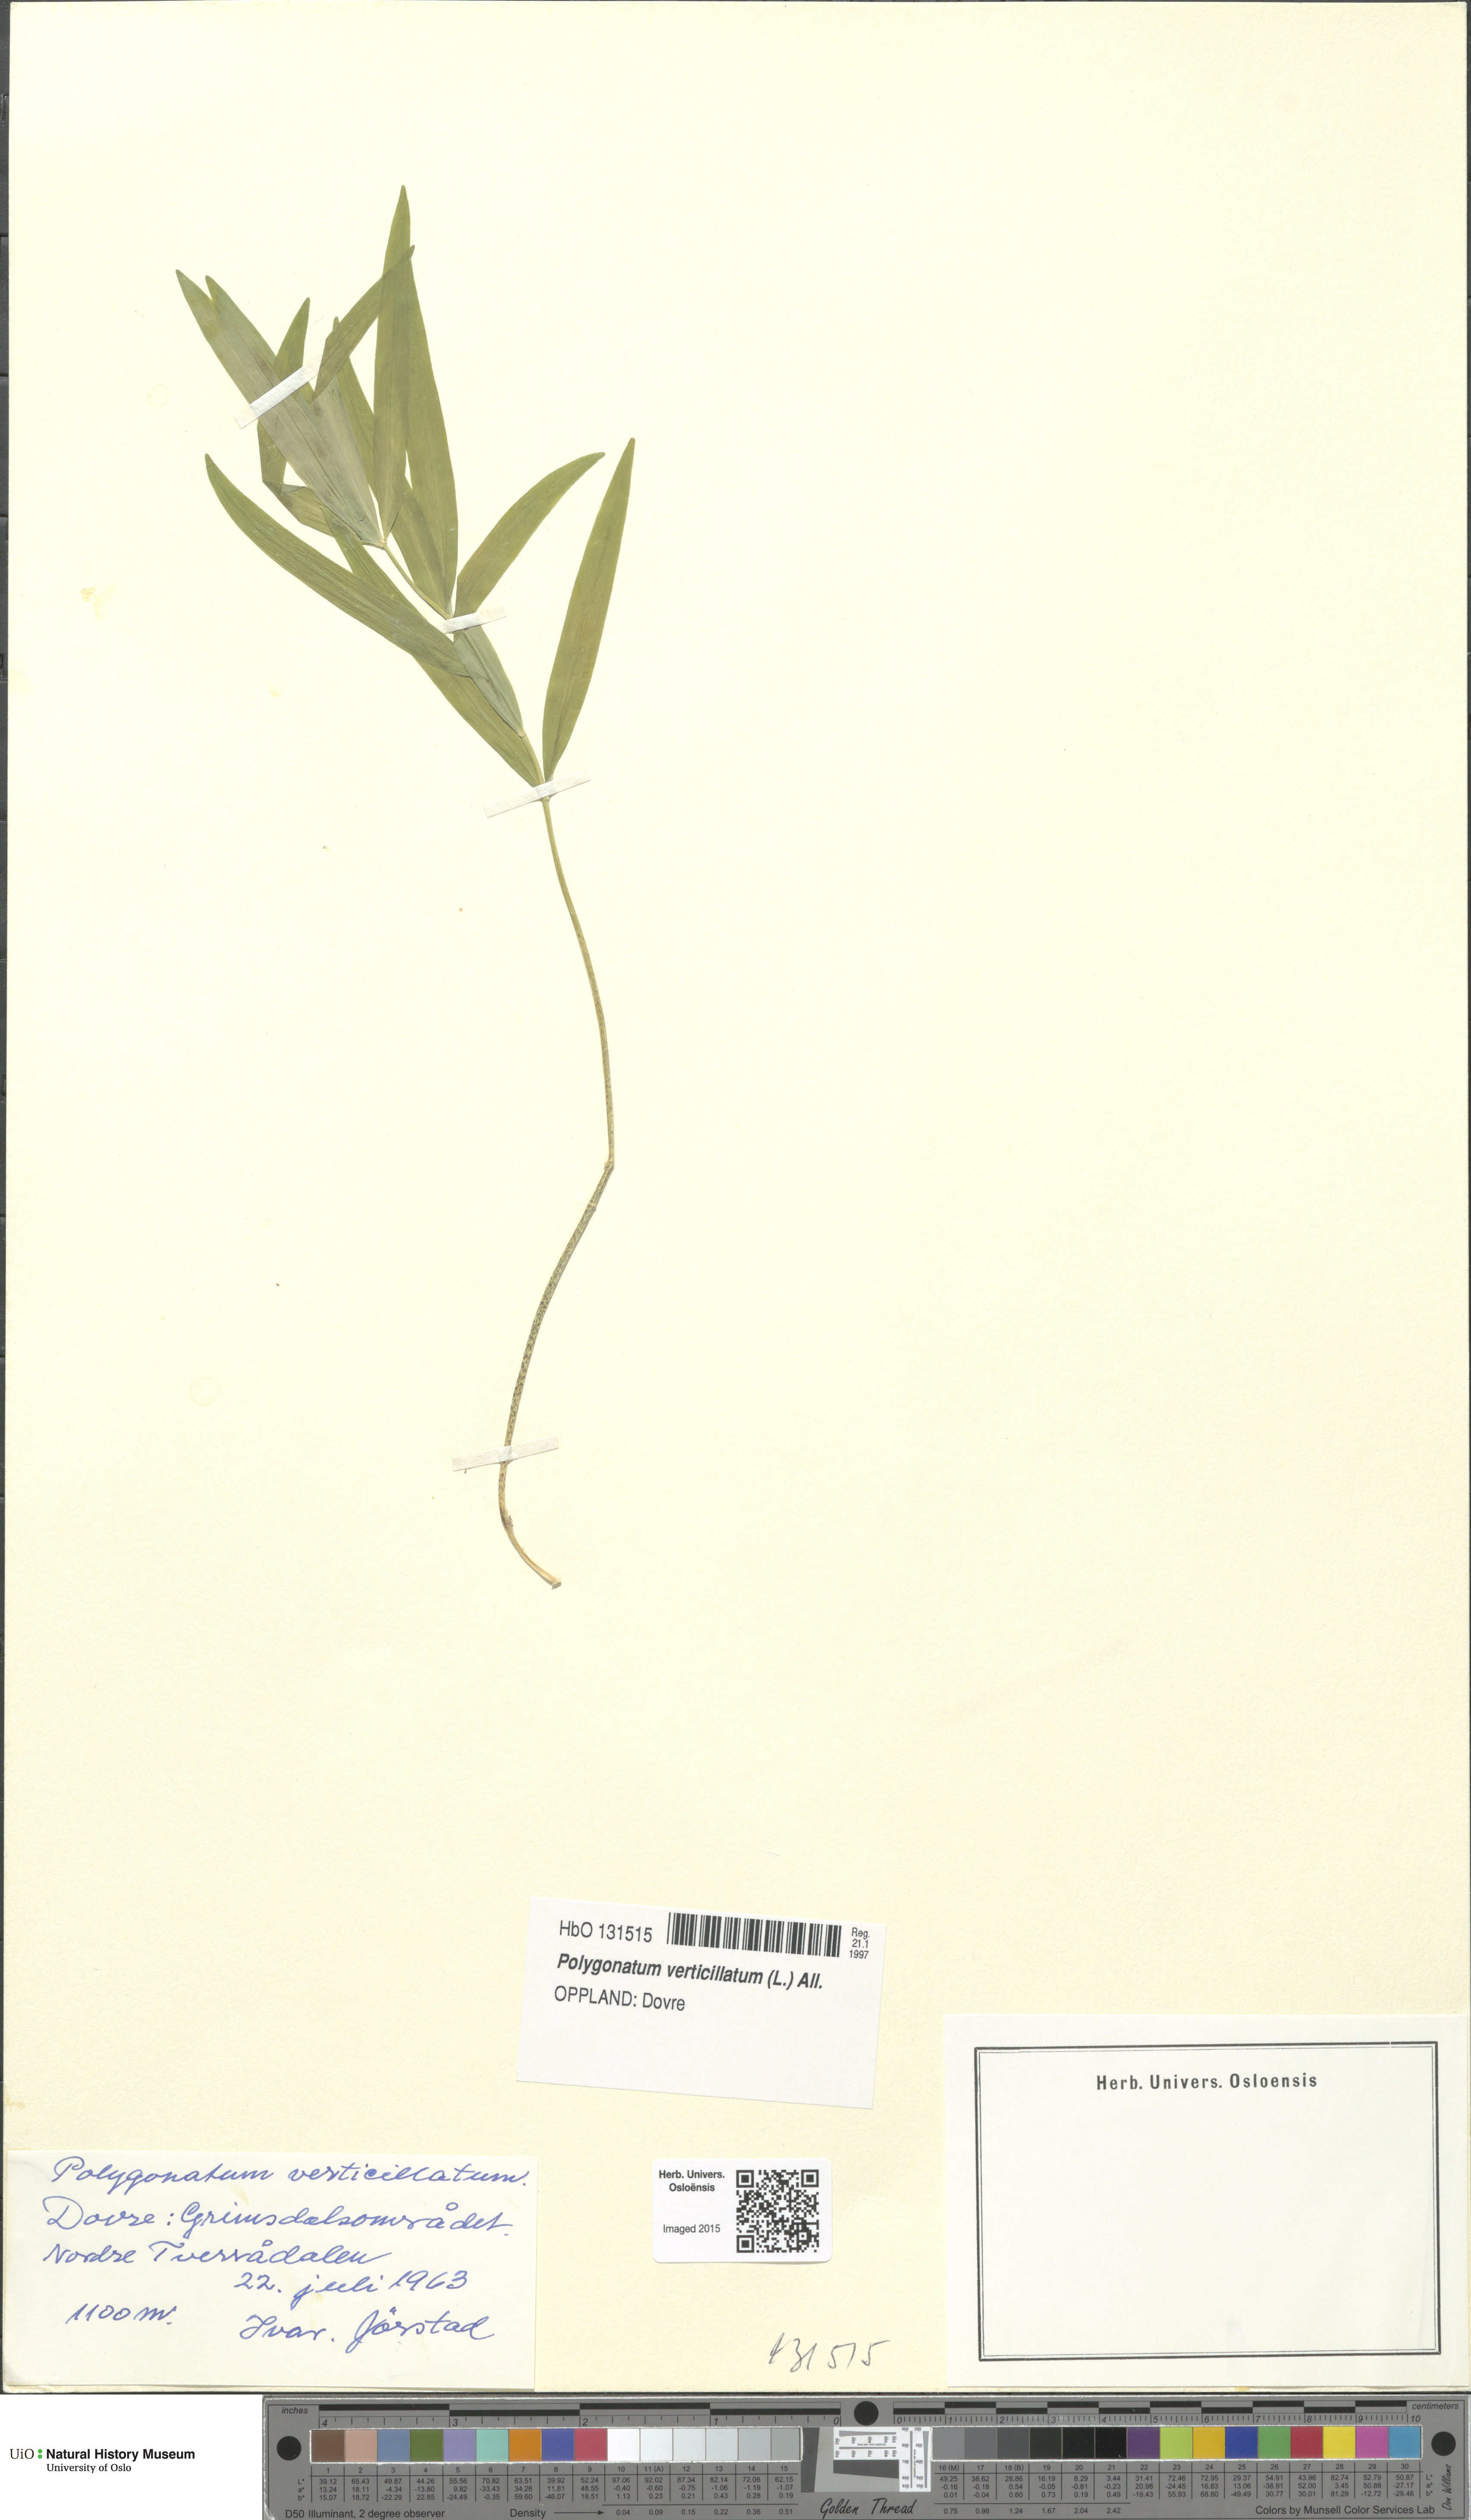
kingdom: Plantae
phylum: Tracheophyta
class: Liliopsida
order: Asparagales
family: Asparagaceae
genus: Polygonatum
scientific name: Polygonatum verticillatum
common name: Whorled solomon's-seal
